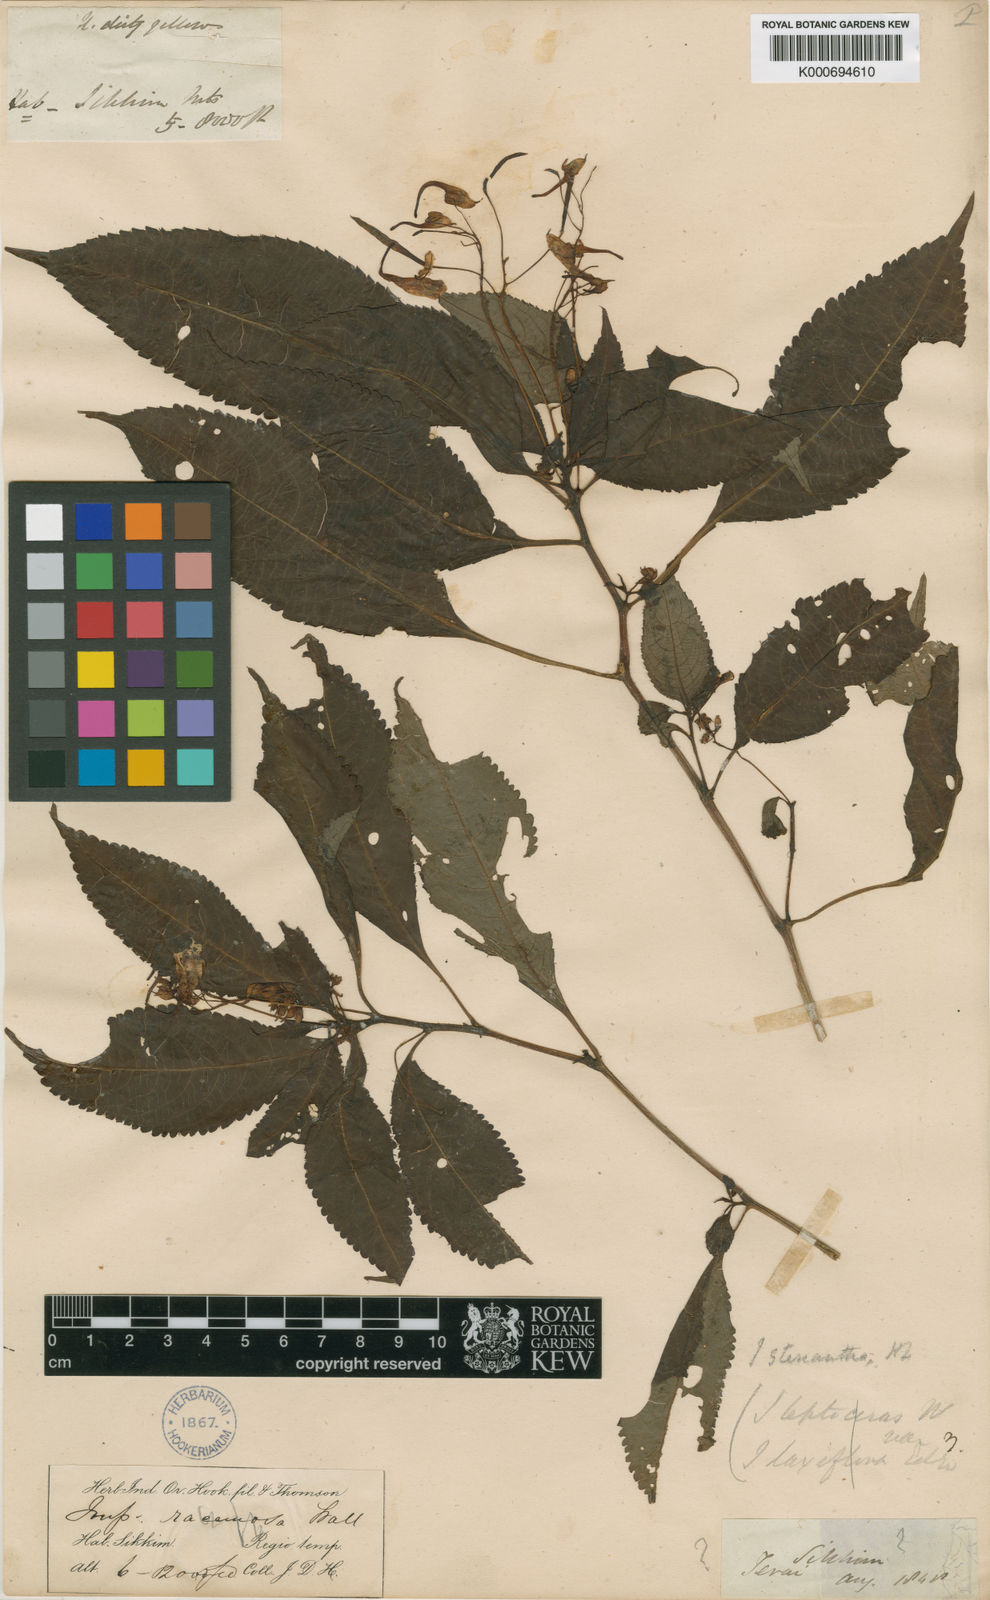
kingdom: Plantae
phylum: Tracheophyta
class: Magnoliopsida
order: Ericales
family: Balsaminaceae
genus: Impatiens
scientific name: Impatiens stenantha
